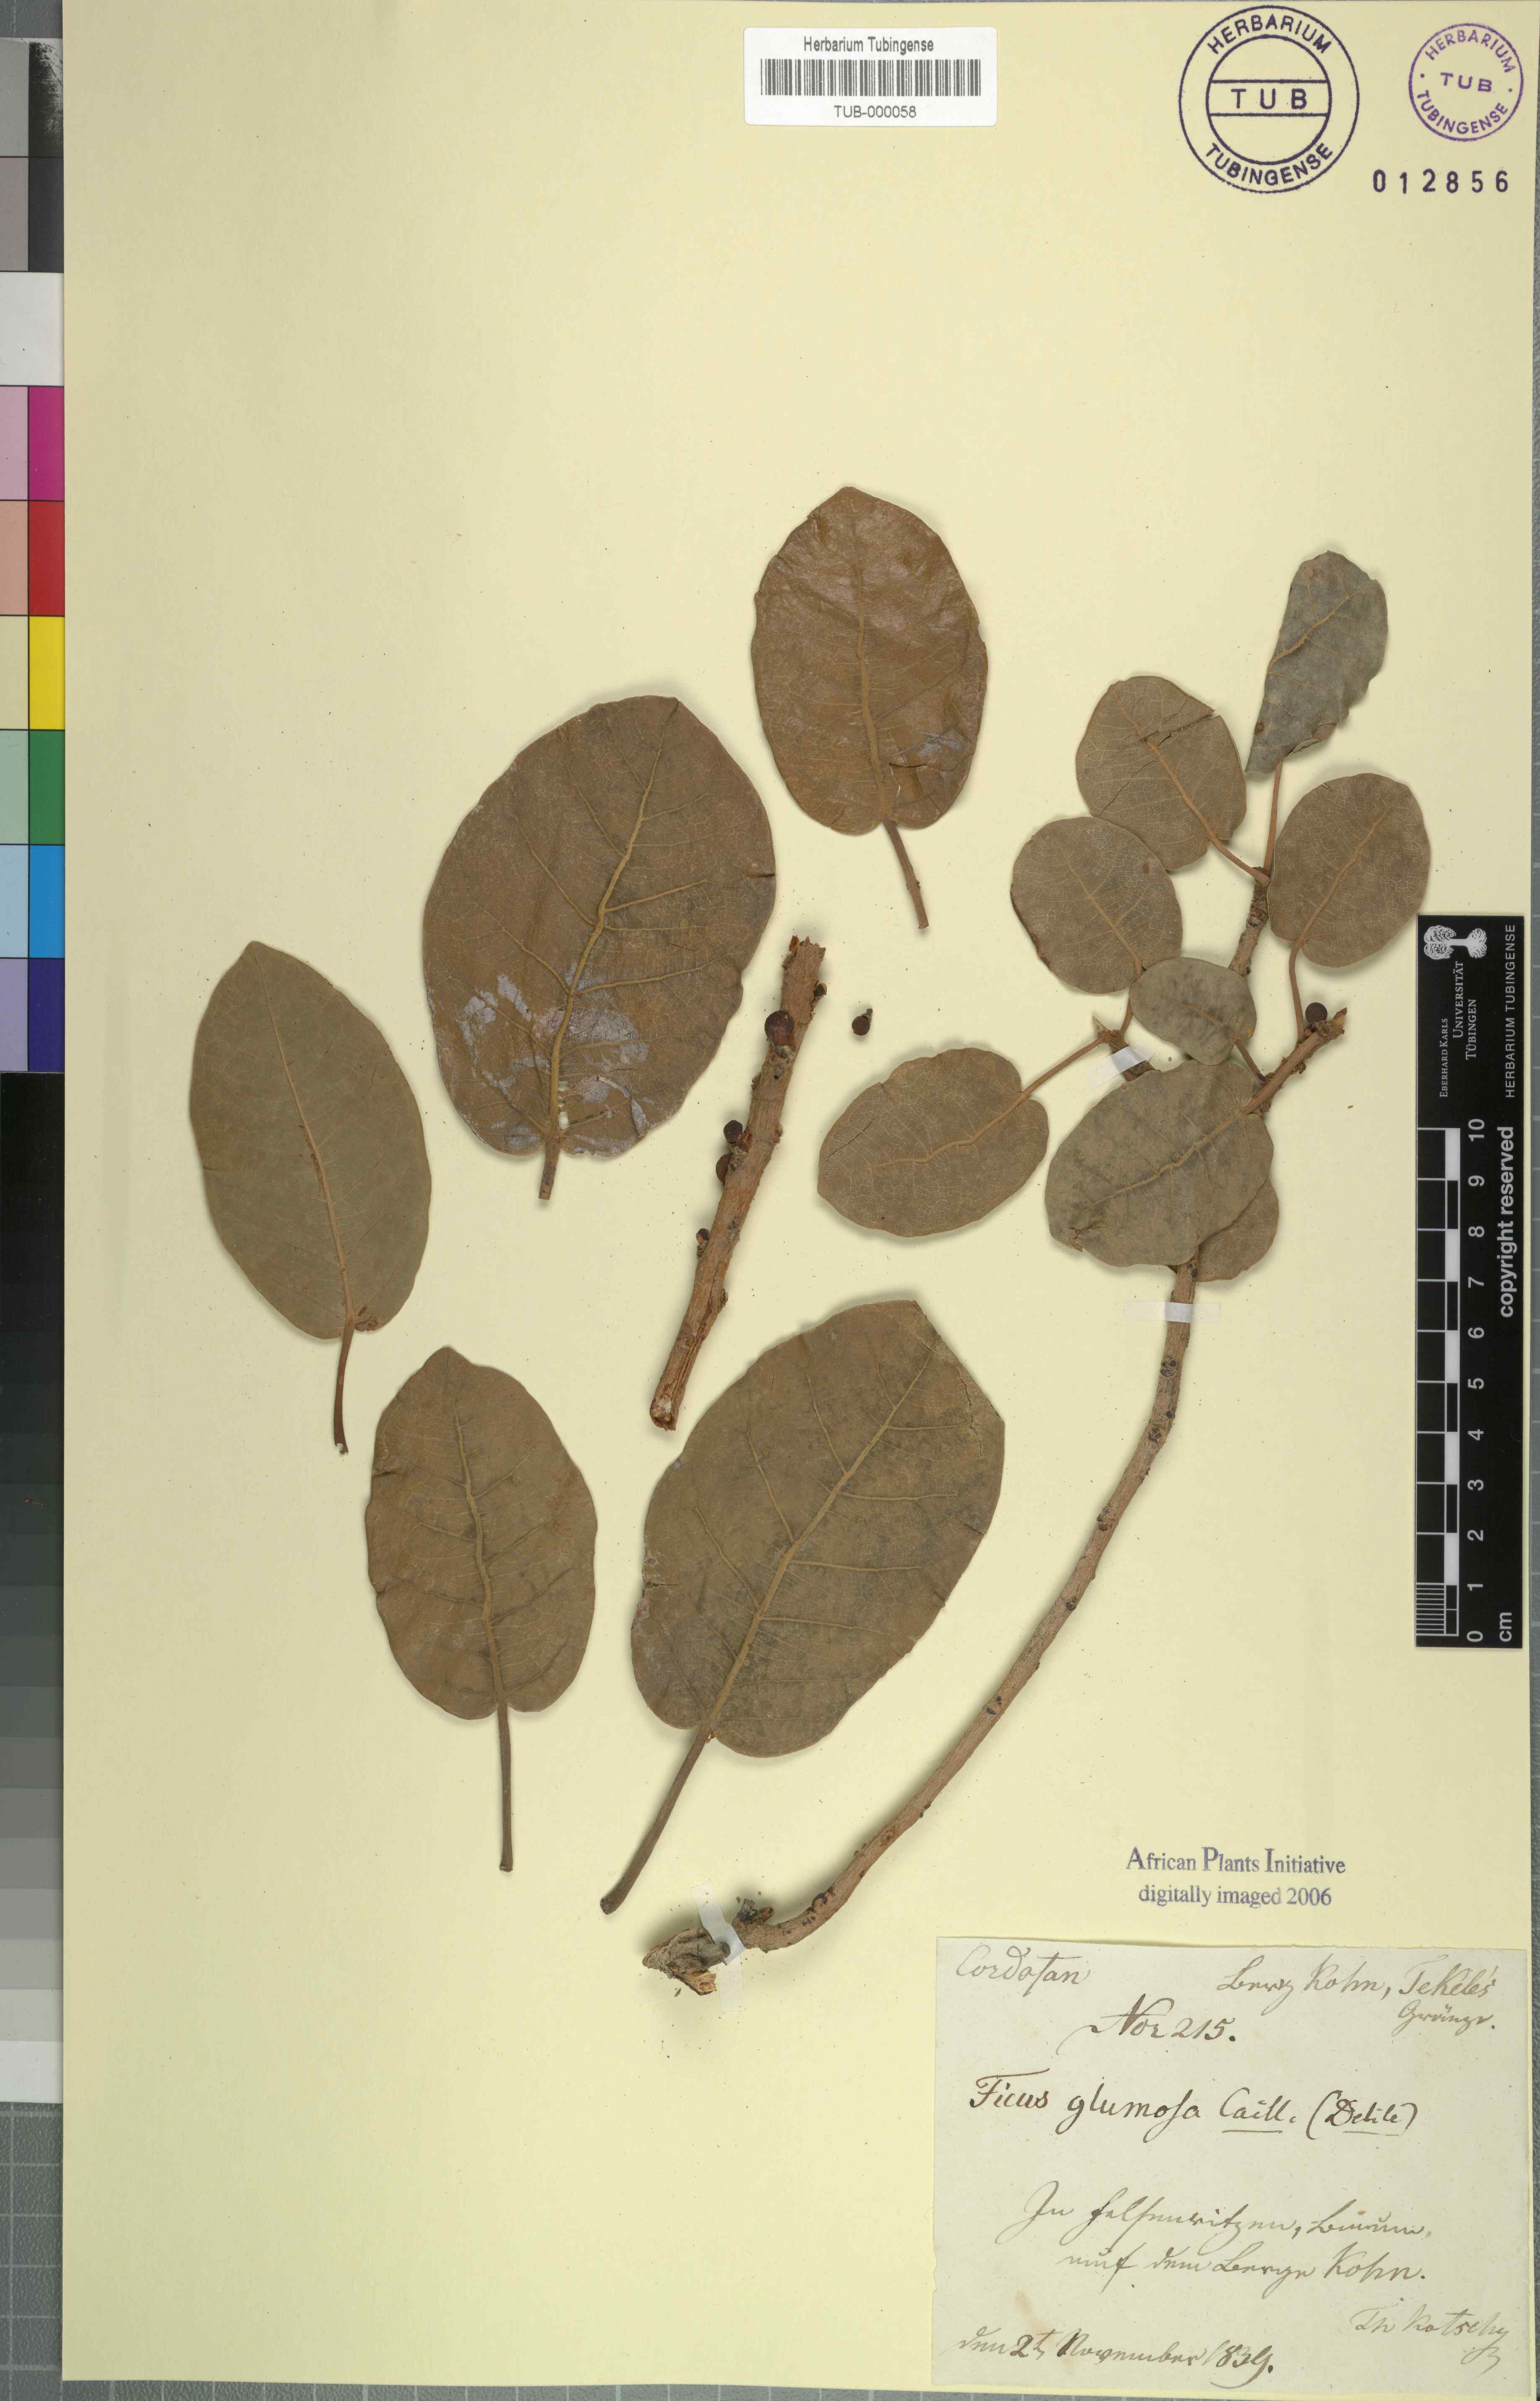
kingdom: Plantae
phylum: Tracheophyta
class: Magnoliopsida
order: Rosales
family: Moraceae
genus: Ficus
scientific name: Ficus glumosa
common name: Hairy rock fig
